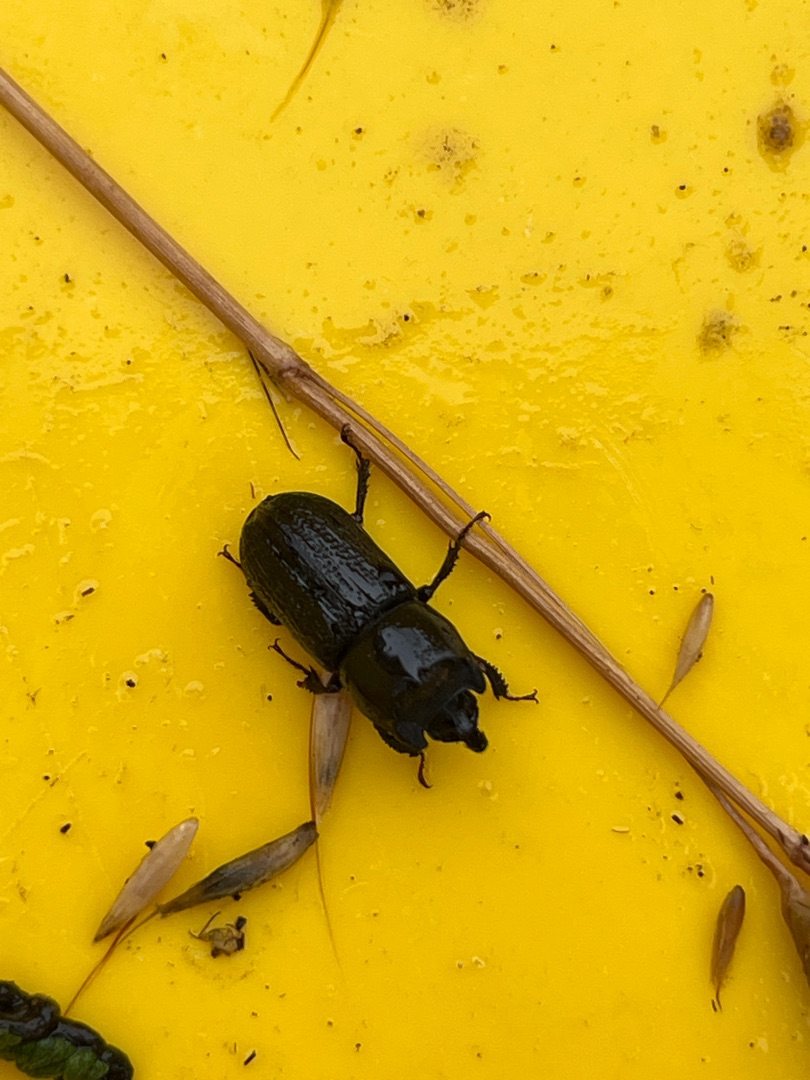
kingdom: Animalia
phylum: Arthropoda
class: Insecta
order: Coleoptera
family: Lucanidae
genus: Sinodendron
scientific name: Sinodendron cylindricum
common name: Valsehjort
